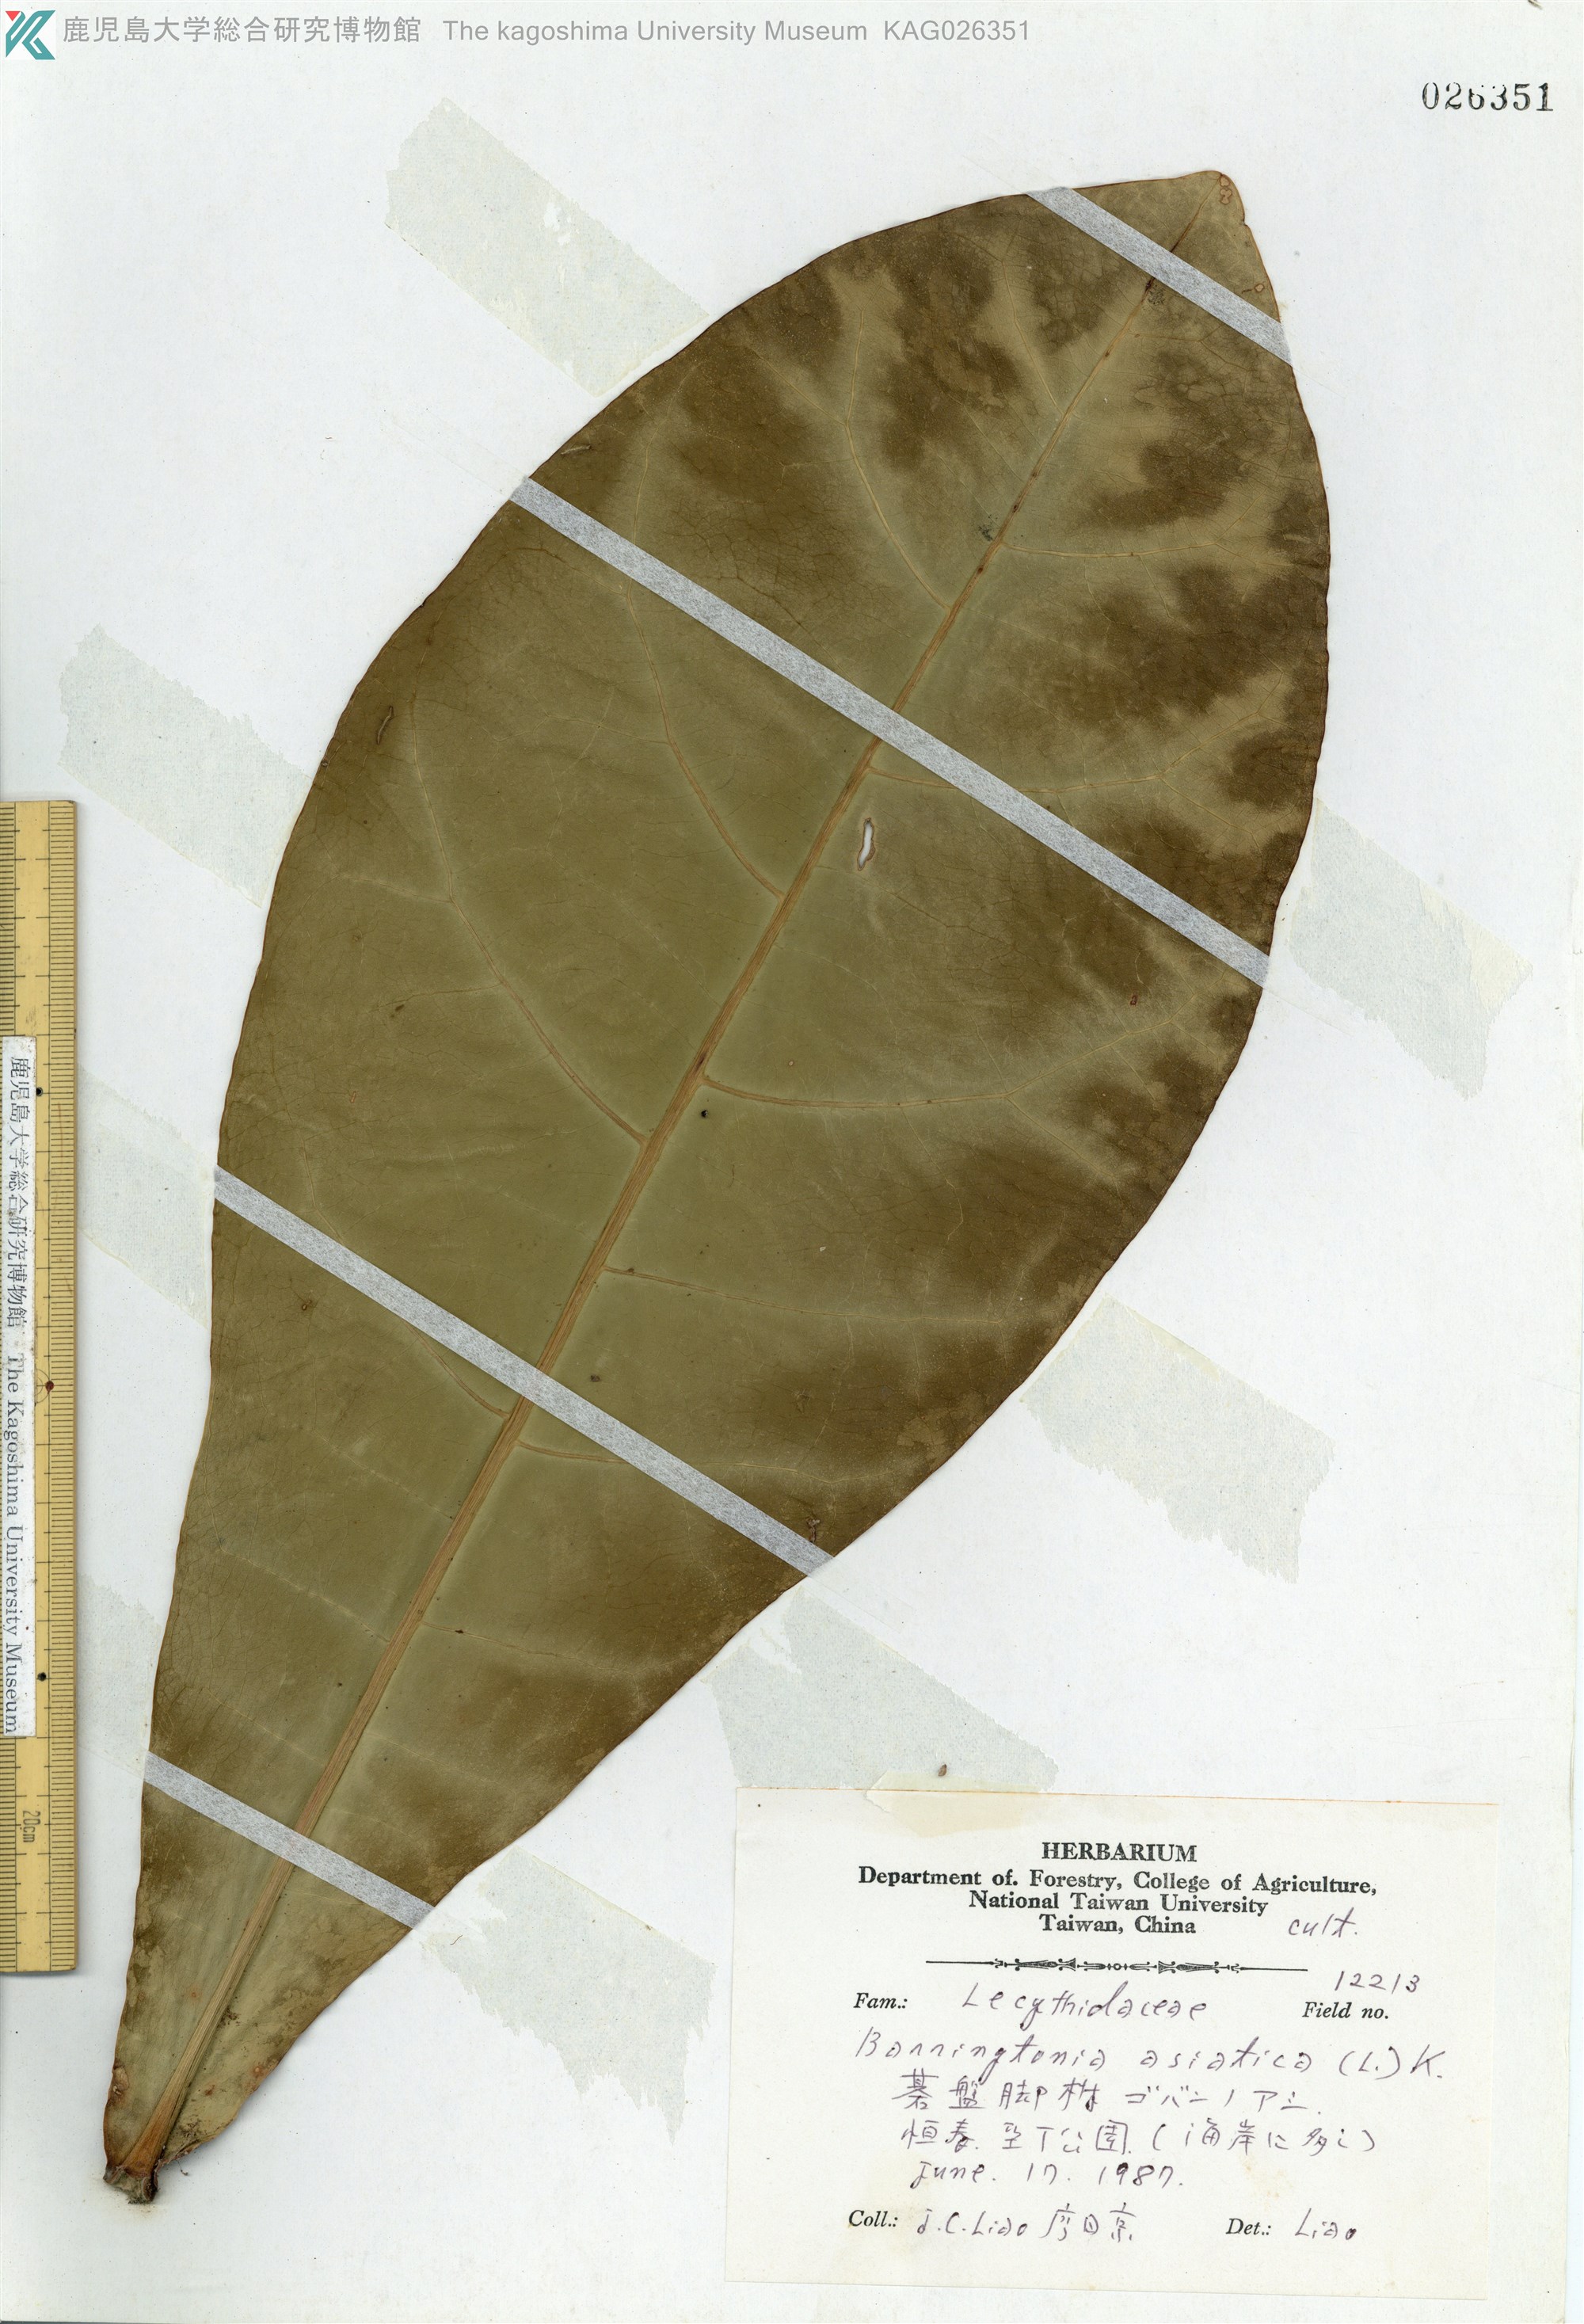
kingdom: Plantae
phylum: Tracheophyta
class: Magnoliopsida
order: Ericales
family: Lecythidaceae
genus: Barringtonia
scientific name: Barringtonia asiatica
